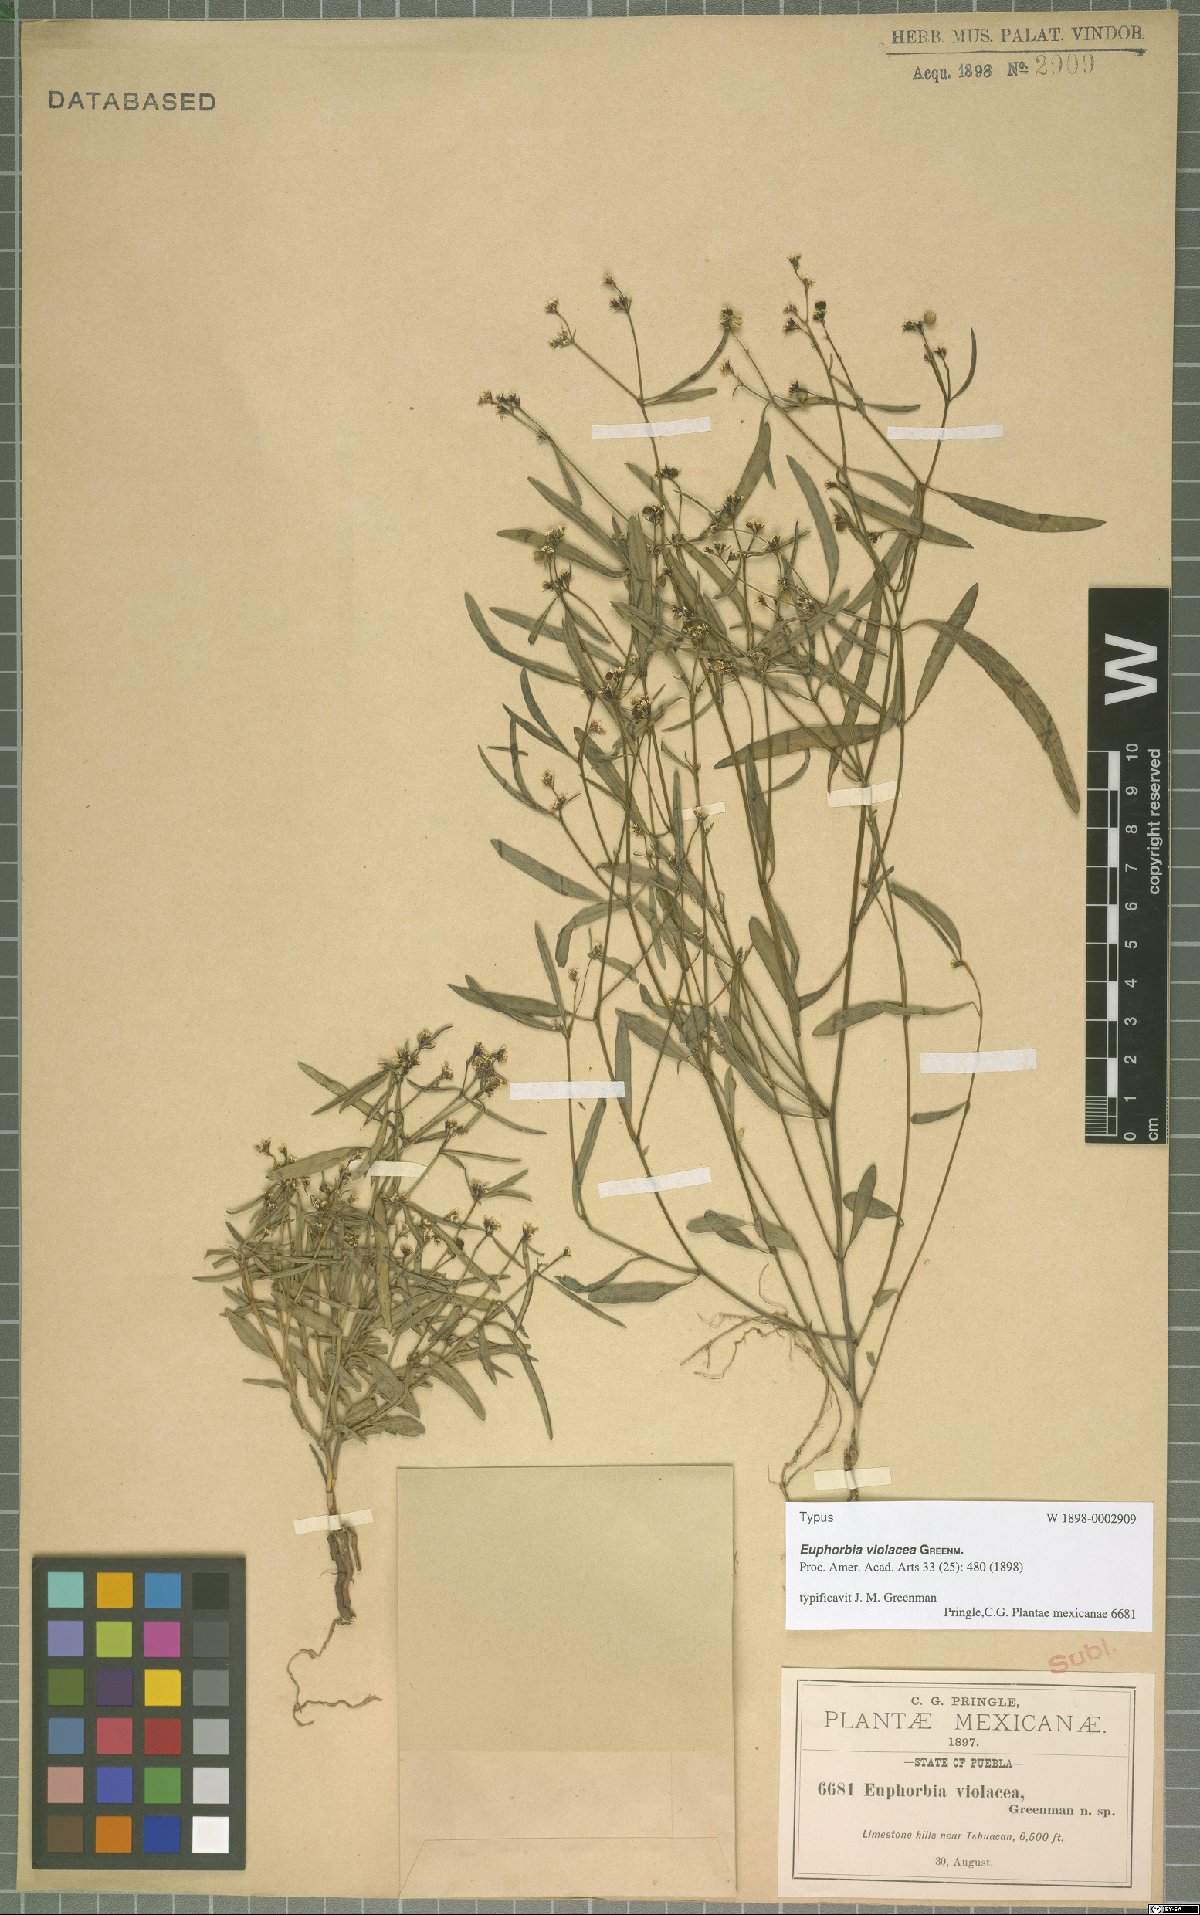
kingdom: Plantae
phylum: Tracheophyta
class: Magnoliopsida
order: Malpighiales
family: Euphorbiaceae
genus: Euphorbia
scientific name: Euphorbia violacea
